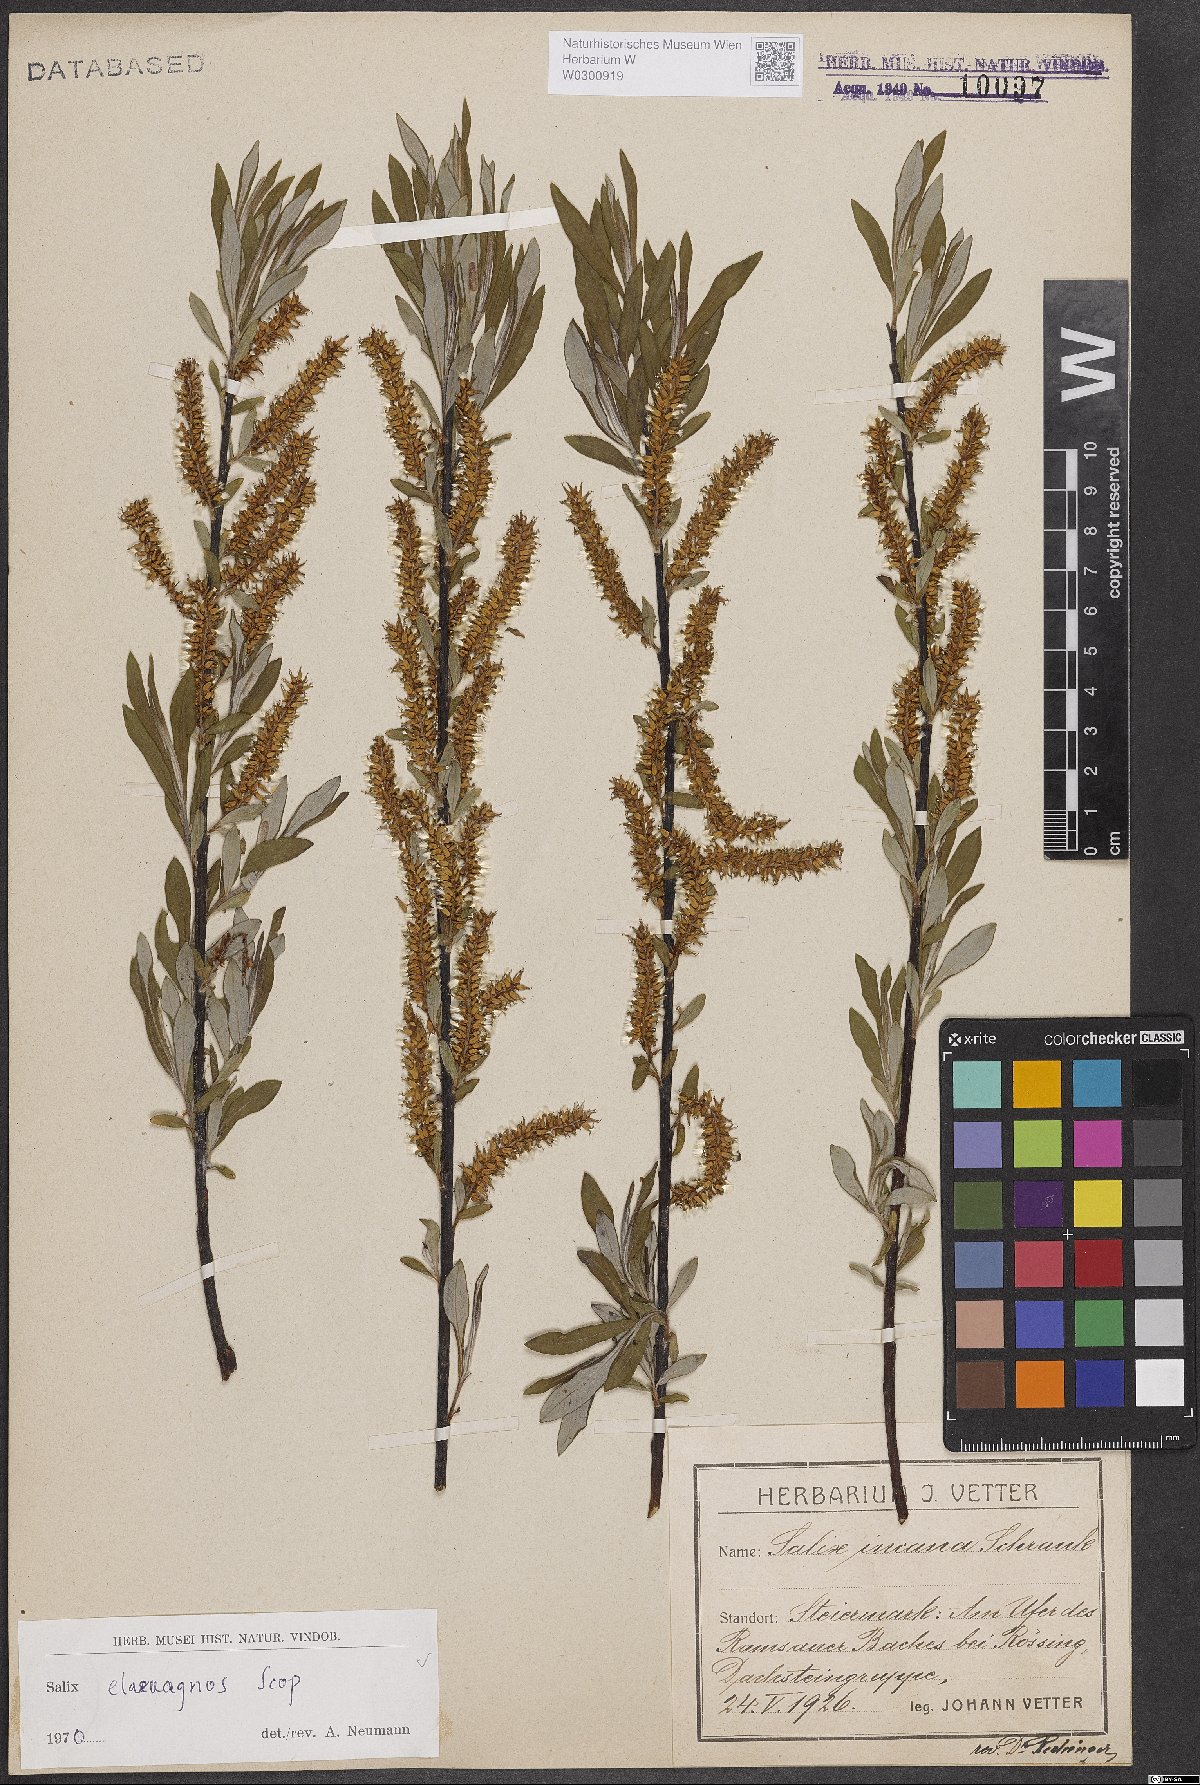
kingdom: Plantae
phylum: Tracheophyta
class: Magnoliopsida
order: Malpighiales
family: Salicaceae
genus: Salix
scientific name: Salix eleagnos
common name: Elaeagnus willow
